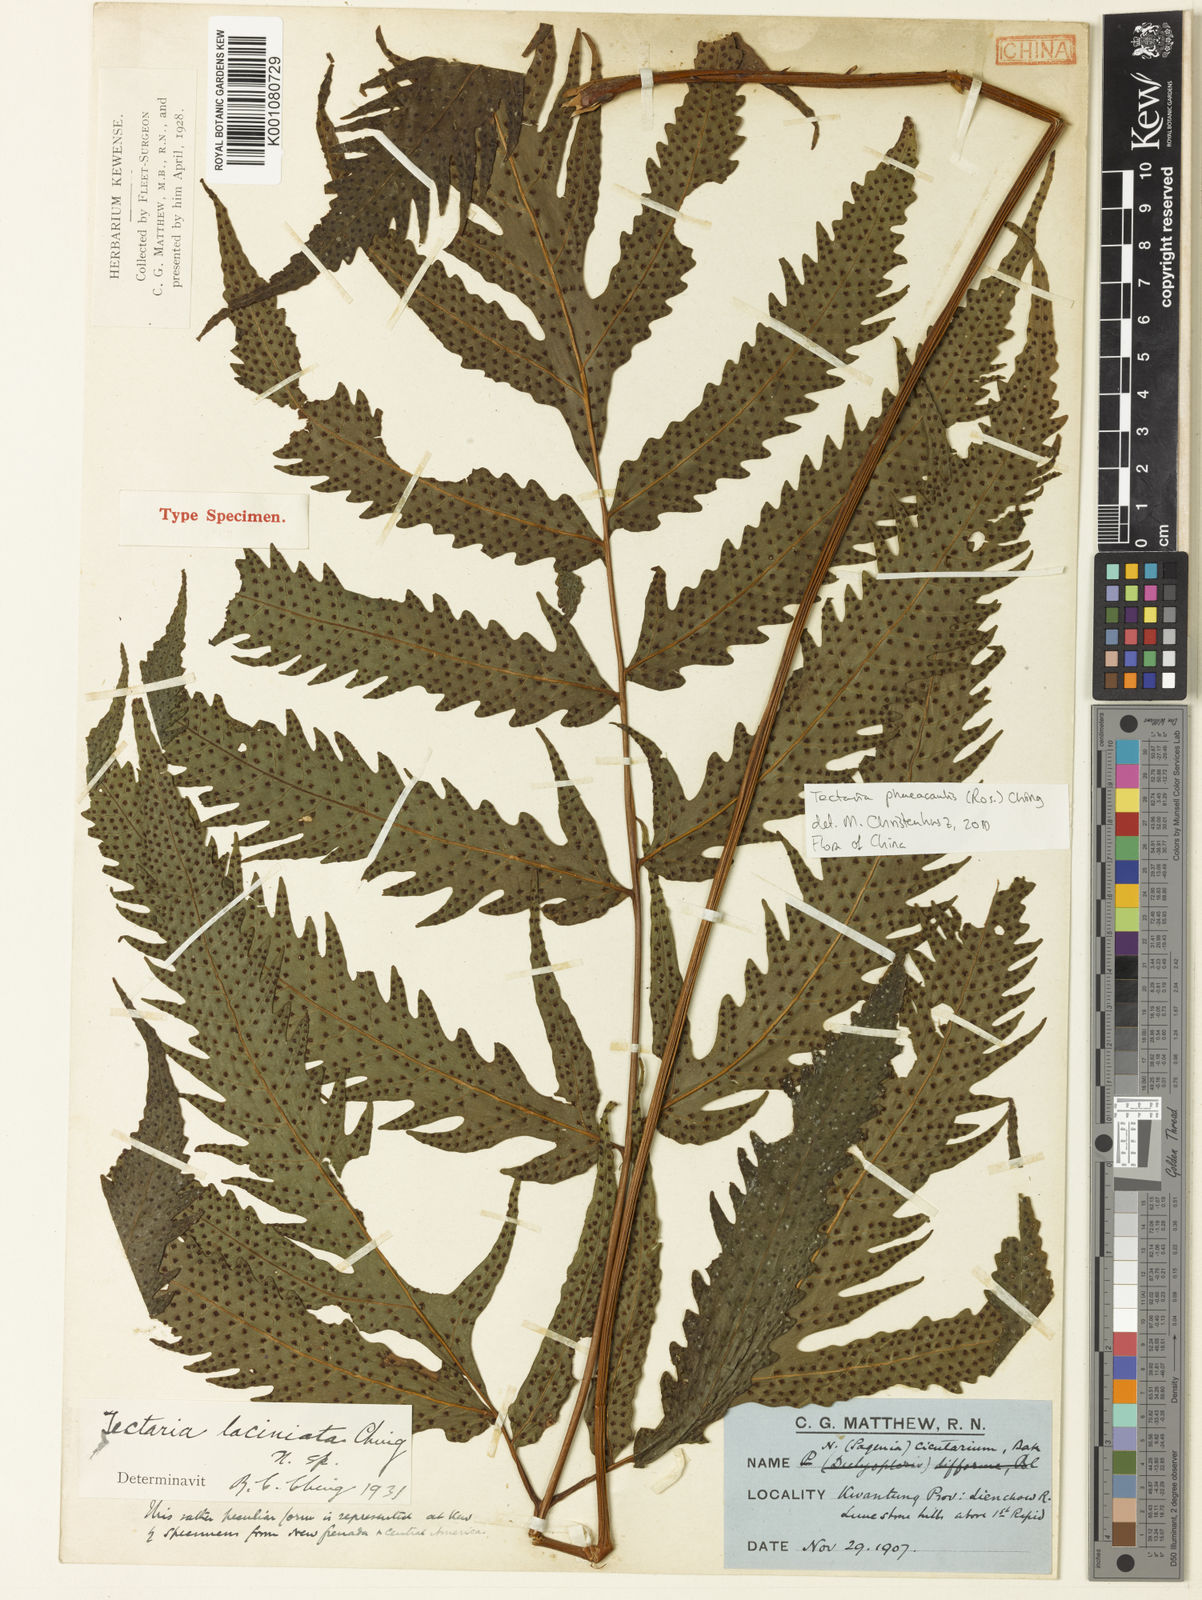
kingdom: Plantae
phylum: Tracheophyta
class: Polypodiopsida
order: Polypodiales
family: Tectariaceae
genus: Tectaria
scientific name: Tectaria phaeocaulis
